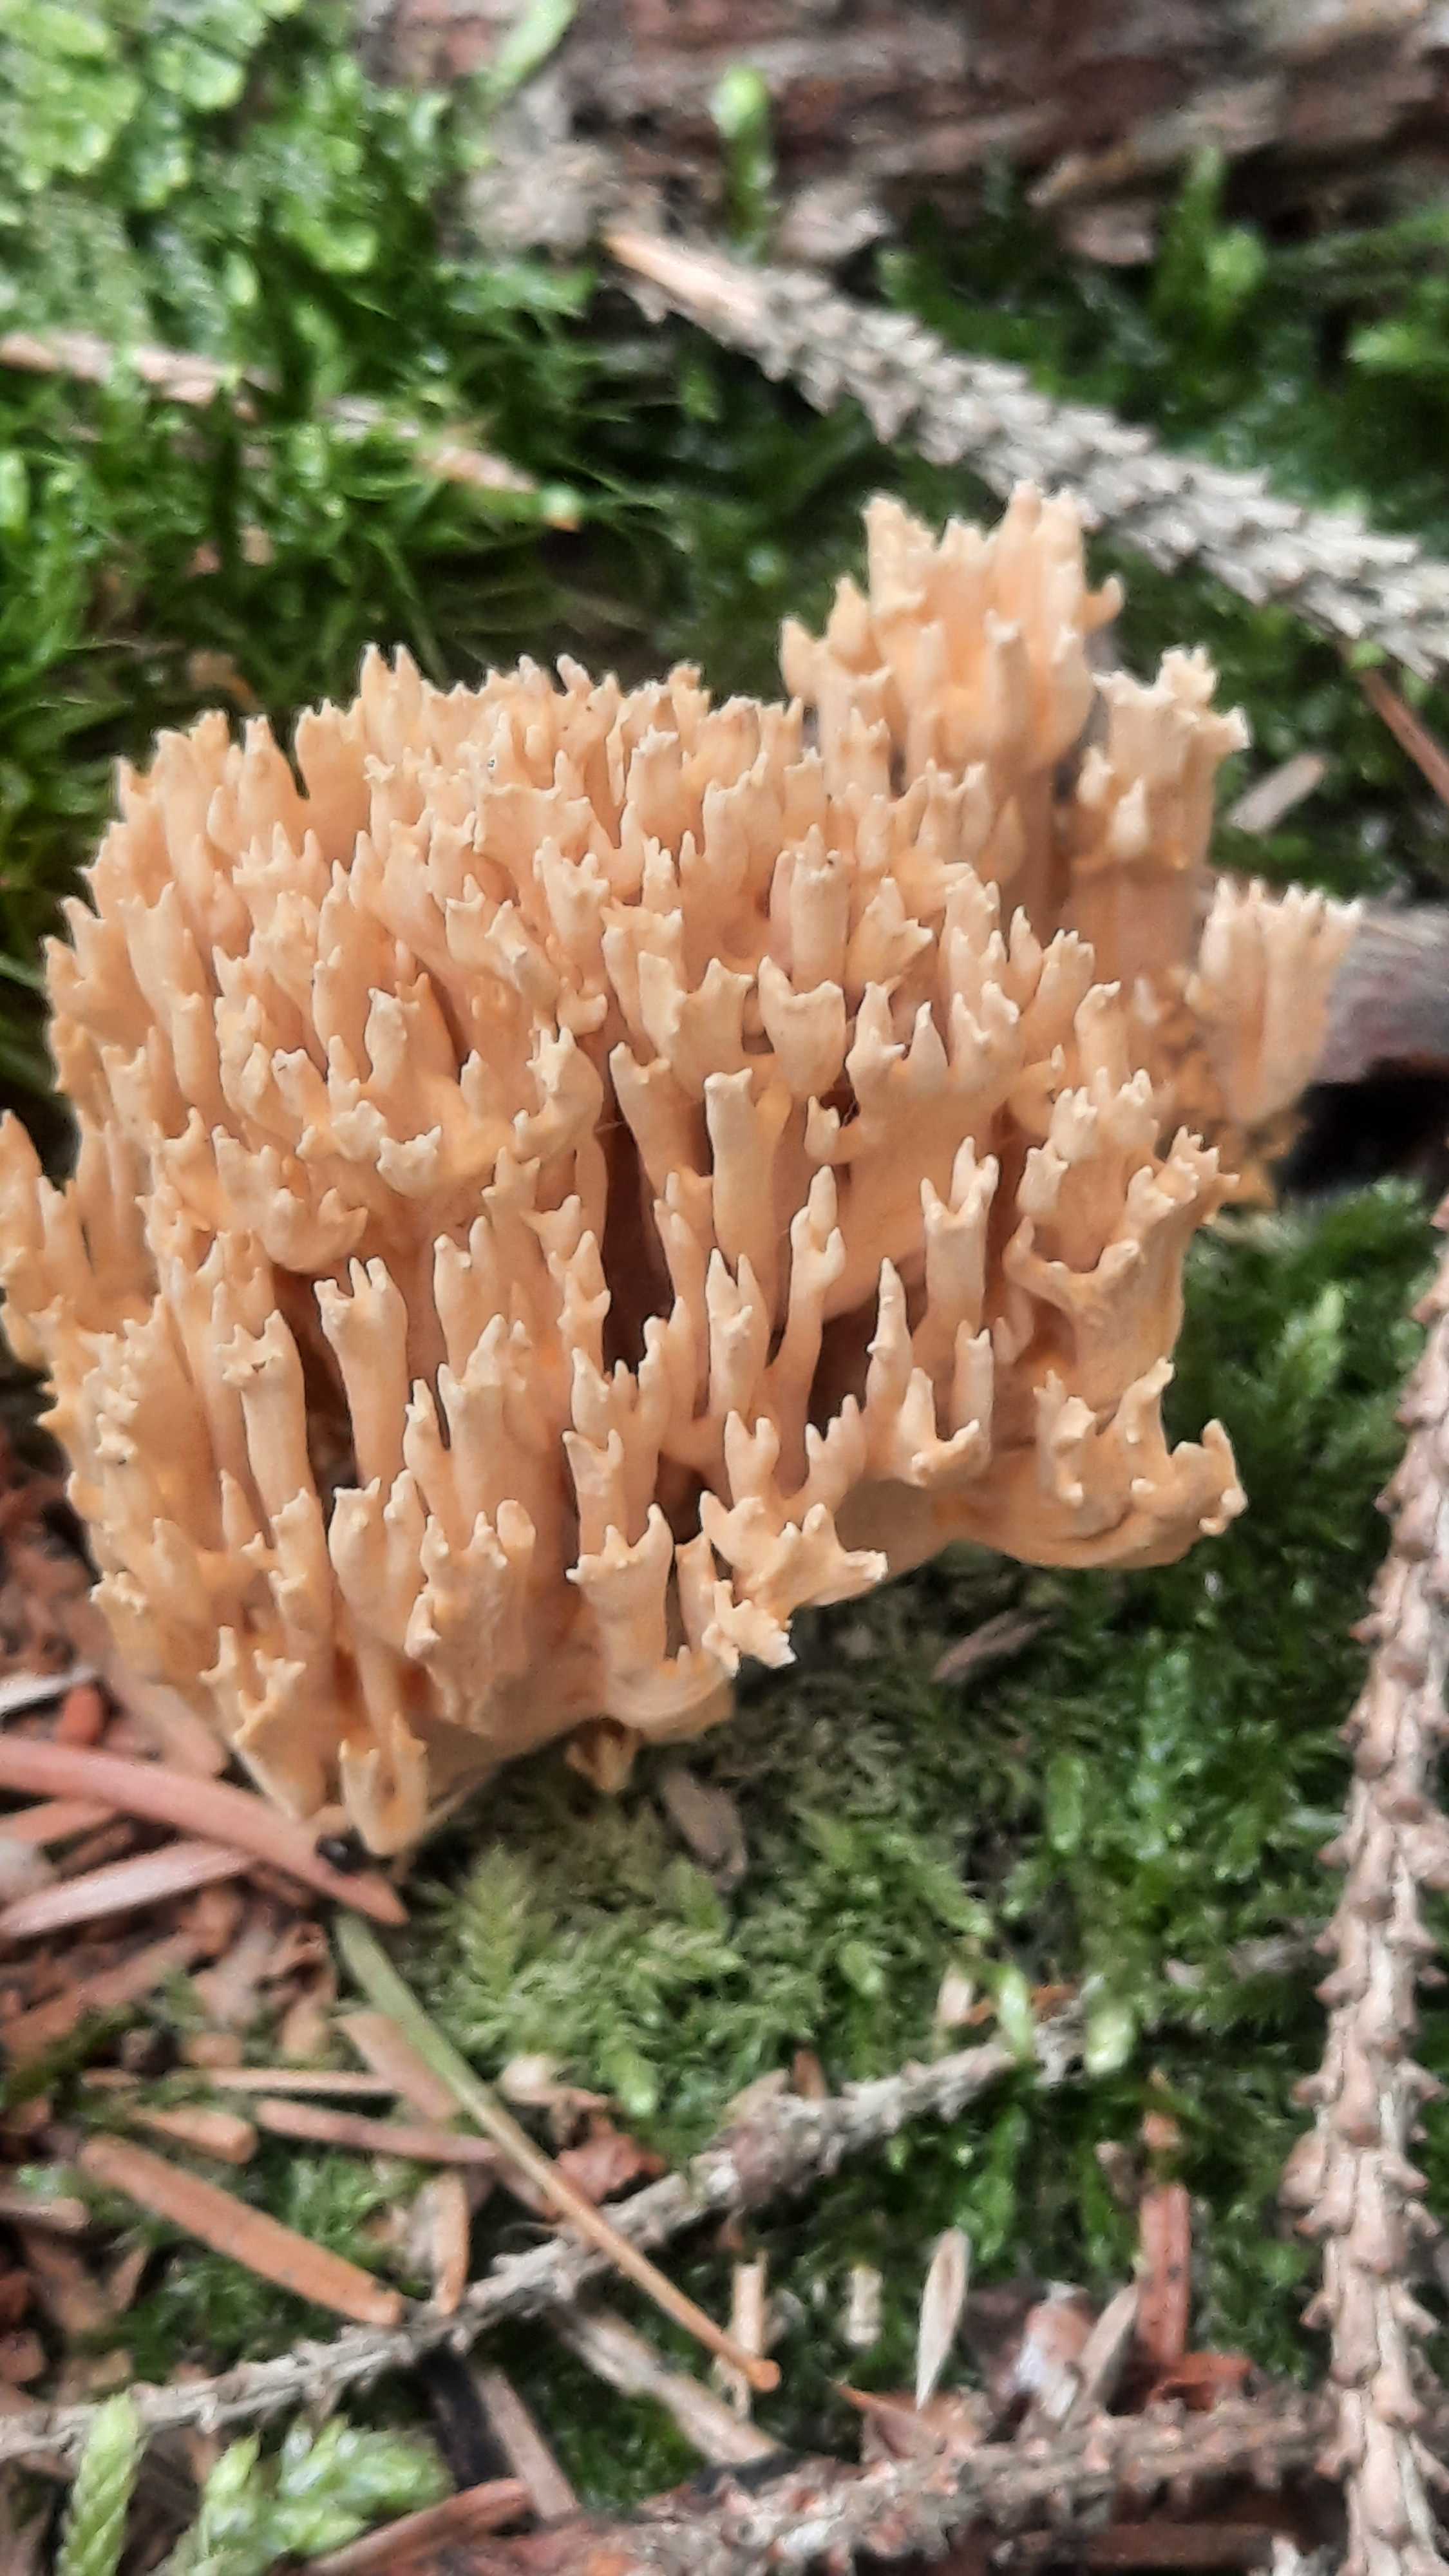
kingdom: Fungi
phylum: Basidiomycota
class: Agaricomycetes
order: Gomphales
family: Gomphaceae
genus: Phaeoclavulina
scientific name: Phaeoclavulina eumorpha
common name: gran-koralsvamp
